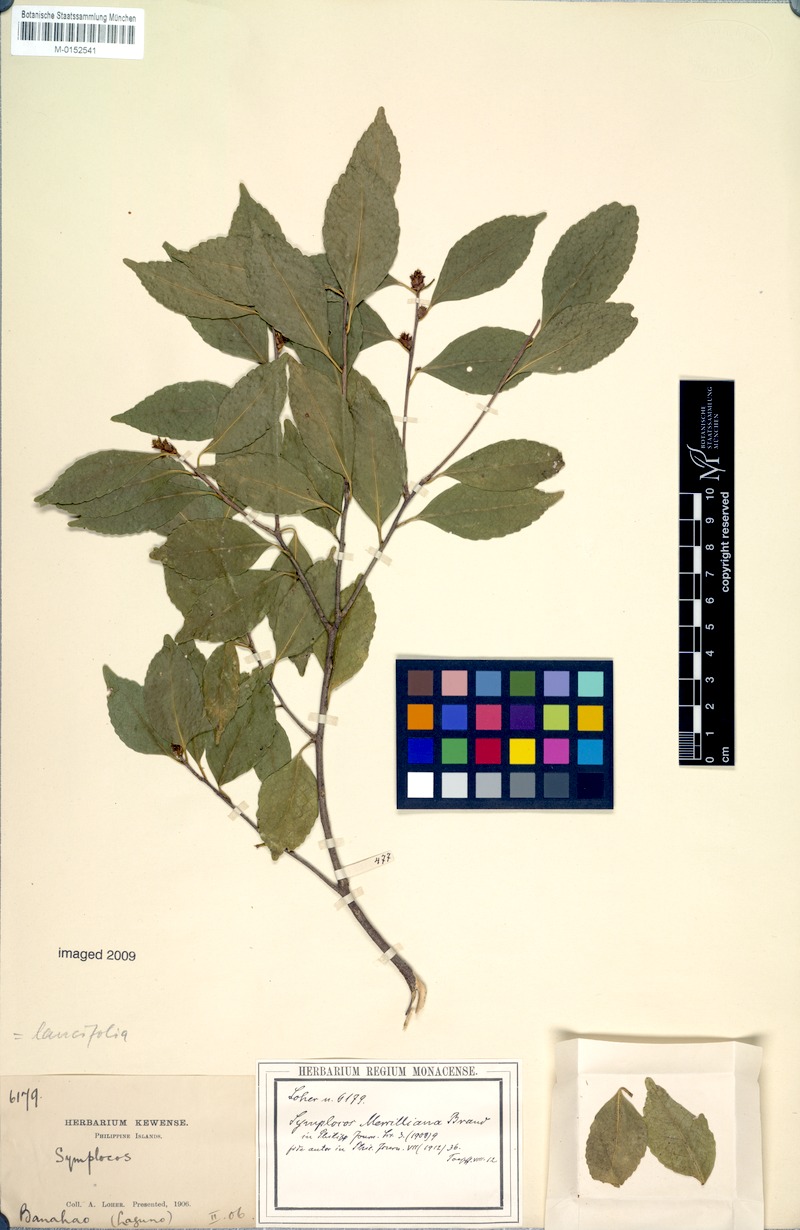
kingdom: Plantae
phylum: Tracheophyta
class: Magnoliopsida
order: Ericales
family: Symplocaceae
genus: Symplocos
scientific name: Symplocos lancifolia
